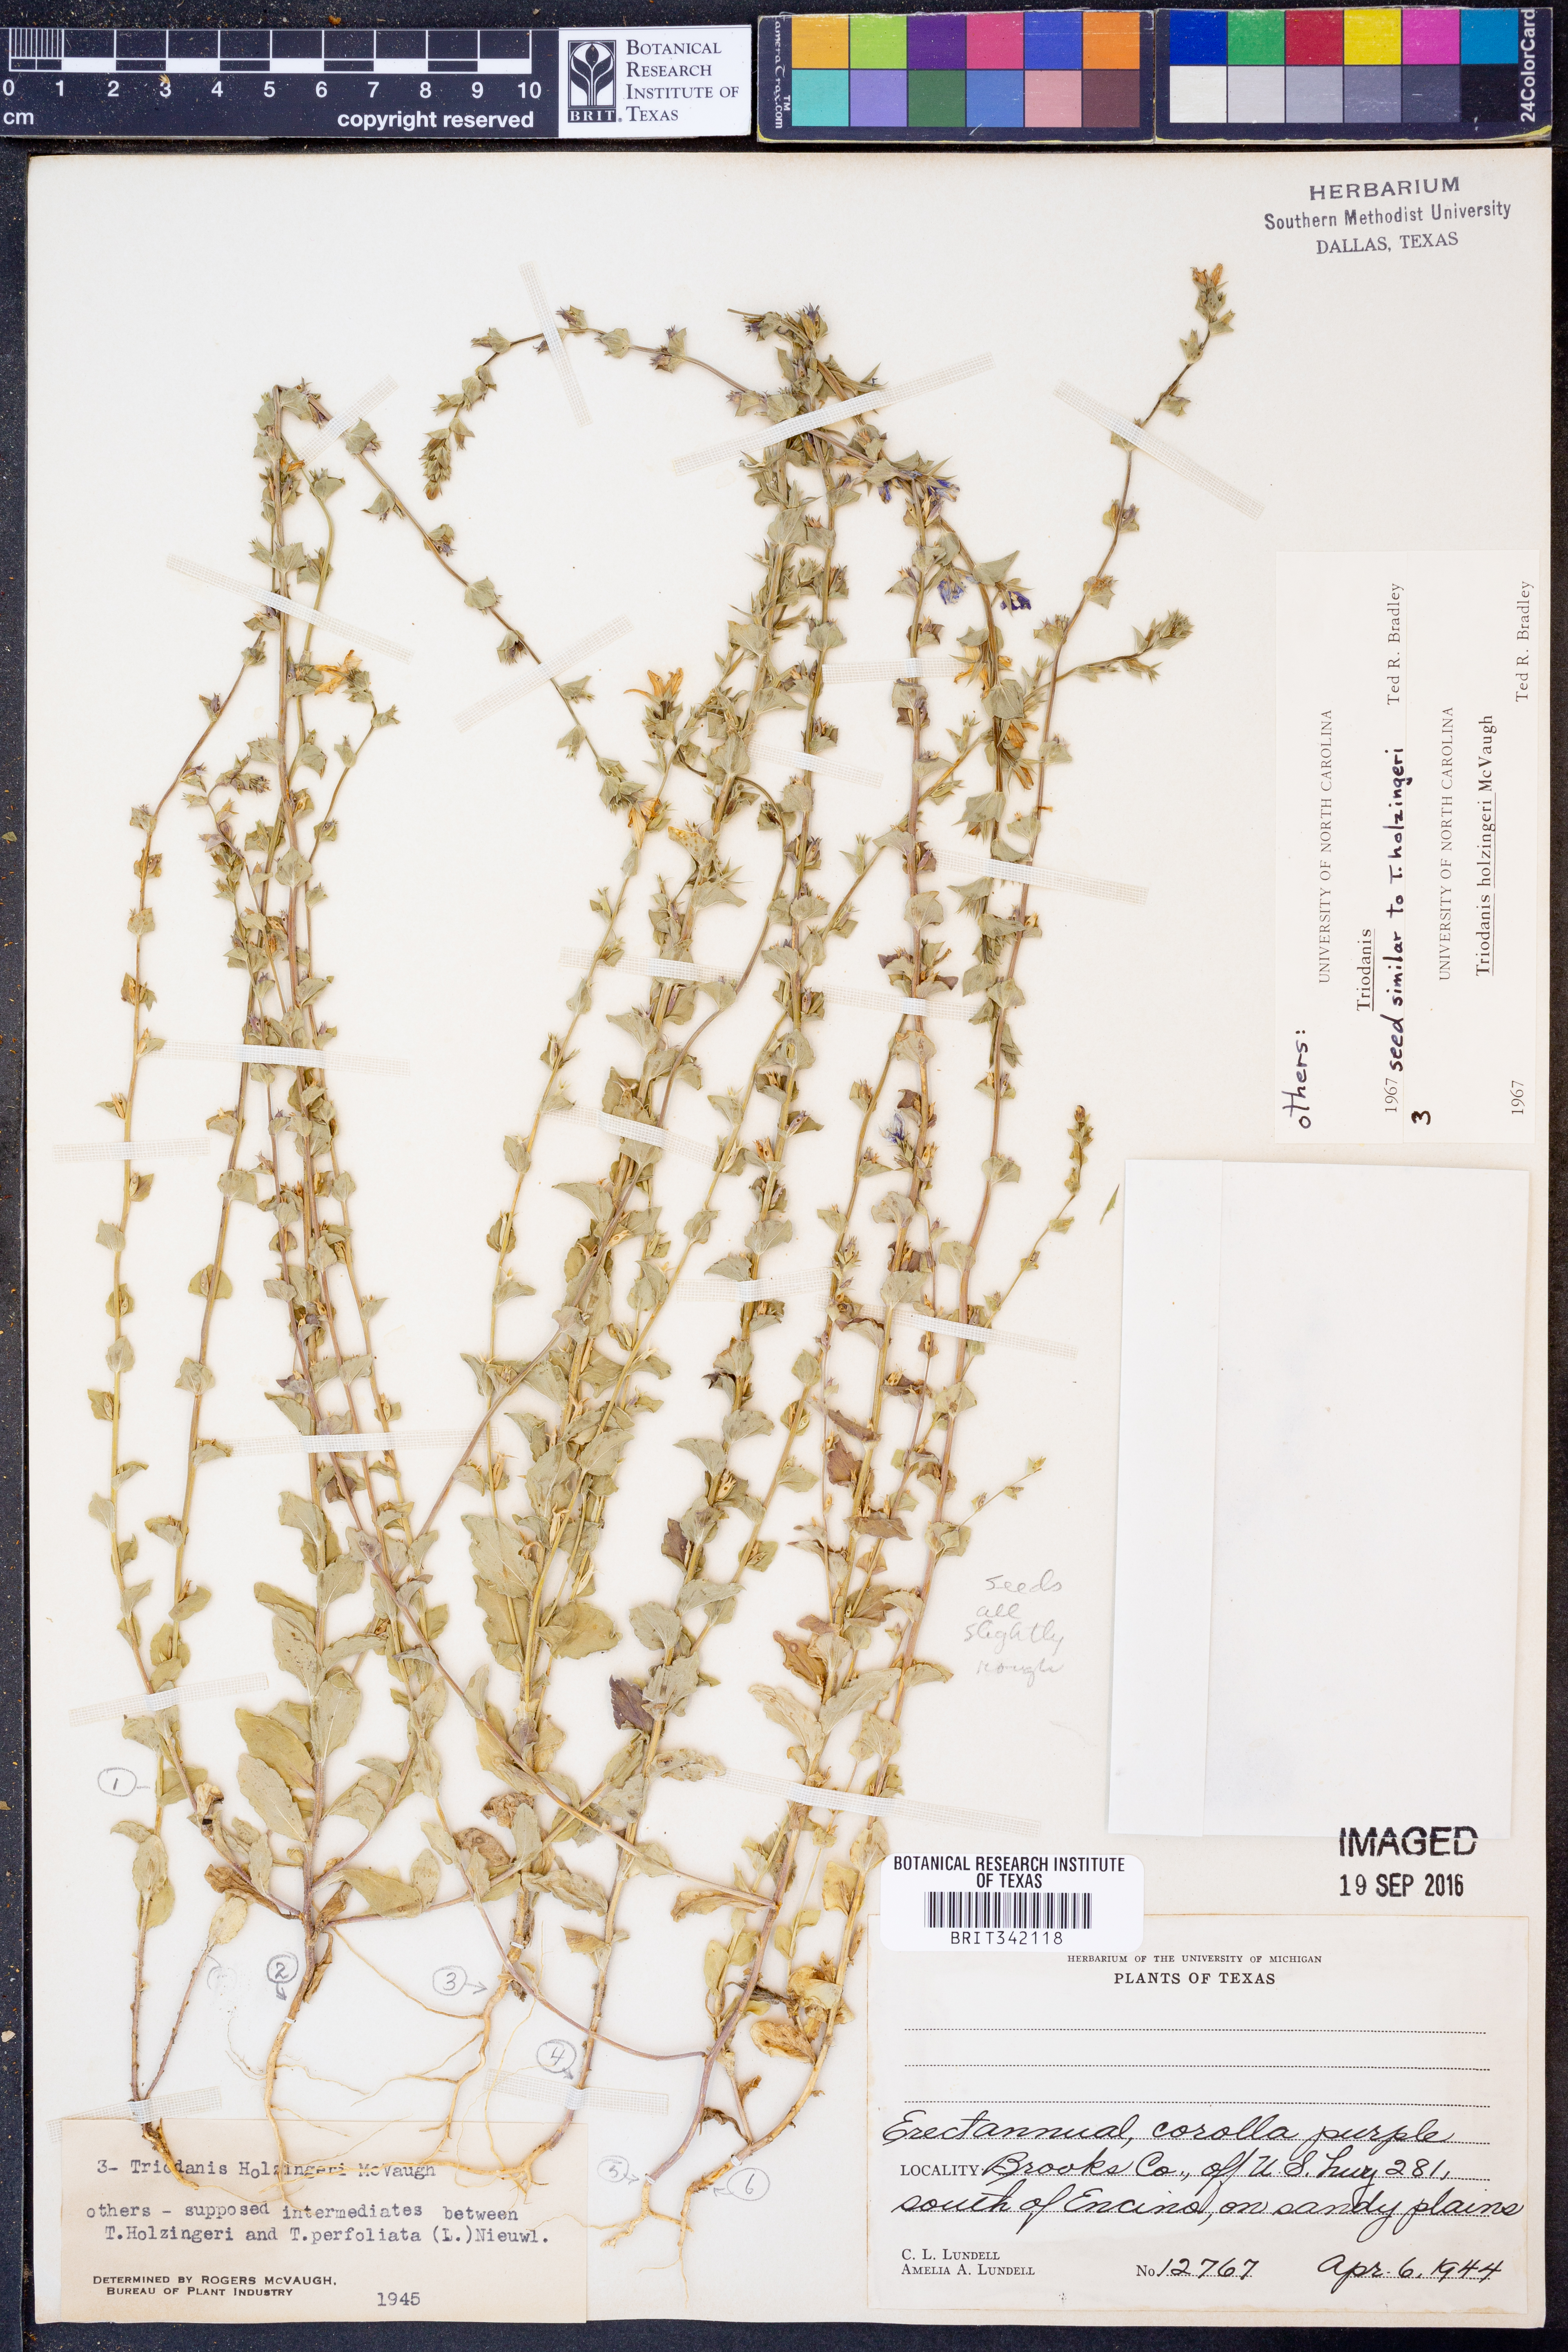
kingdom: Plantae
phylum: Tracheophyta
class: Magnoliopsida
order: Asterales
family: Campanulaceae
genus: Triodanis
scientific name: Triodanis holzingeri
